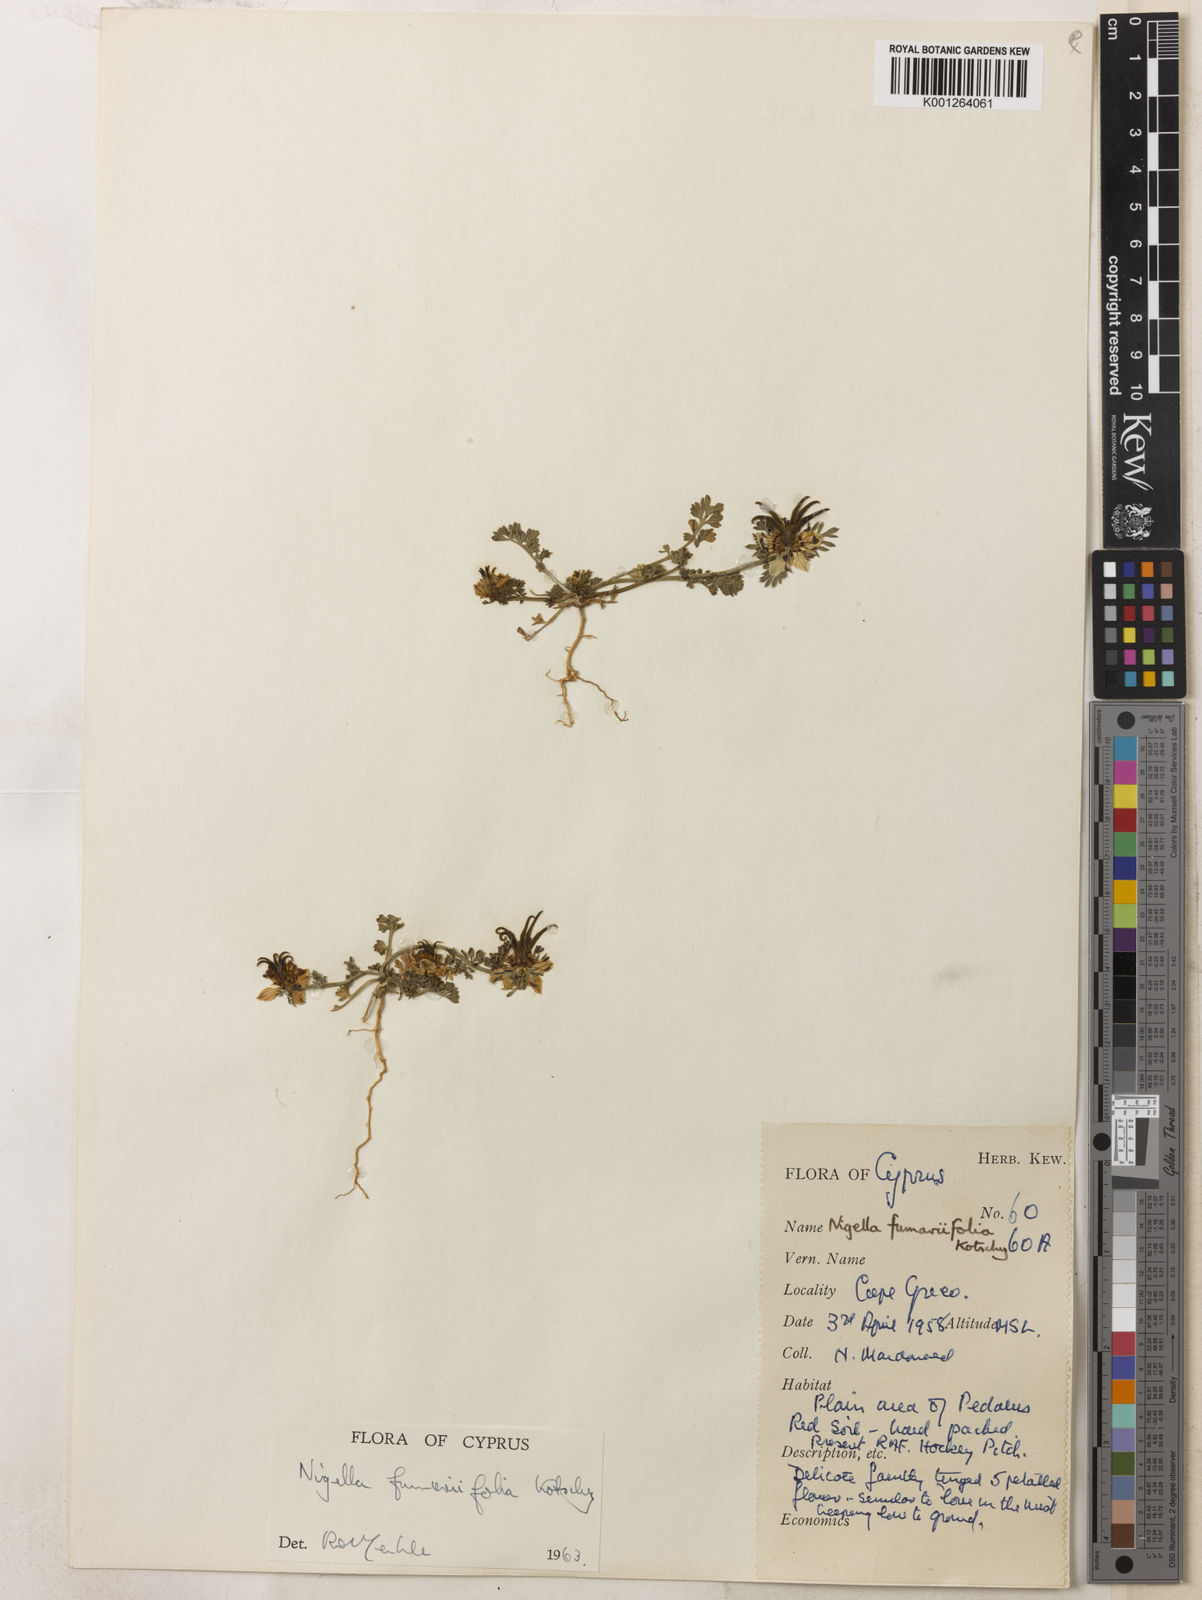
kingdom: Plantae
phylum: Tracheophyta
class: Magnoliopsida
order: Ranunculales
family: Ranunculaceae
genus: Nigella
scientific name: Nigella
